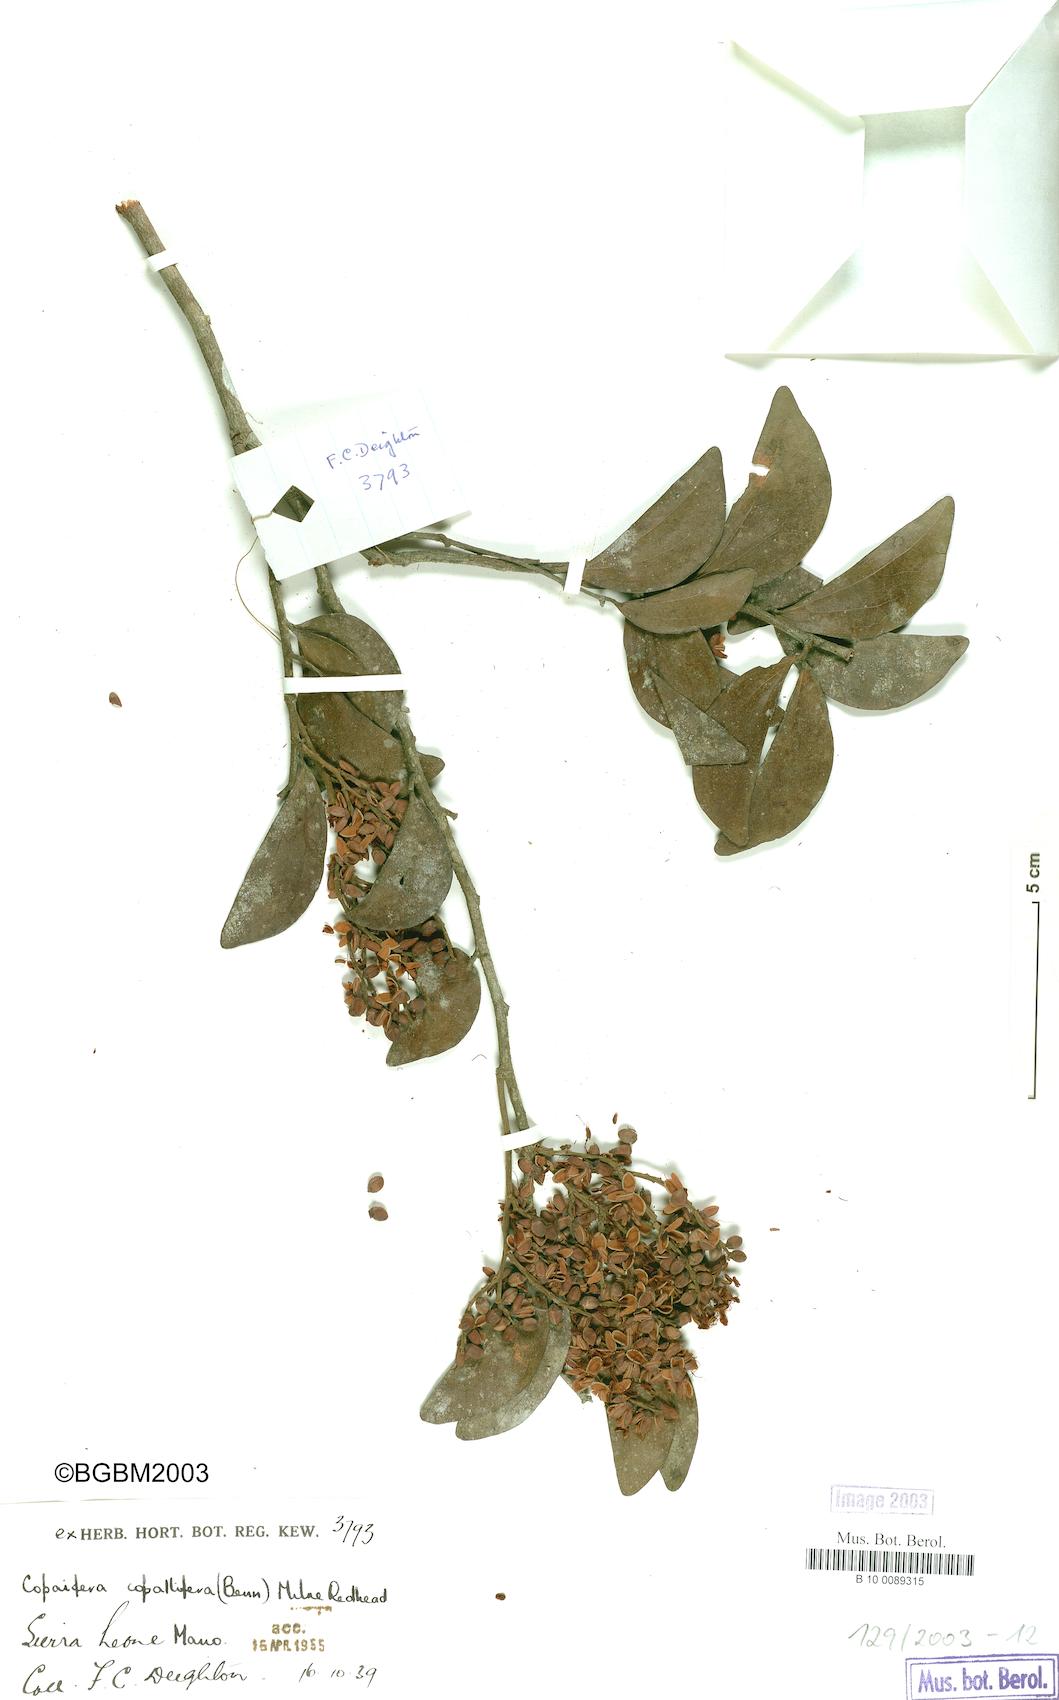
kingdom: Plantae
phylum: Tracheophyta
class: Magnoliopsida
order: Fabales
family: Fabaceae
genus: Guibourtia
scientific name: Guibourtia copallifera
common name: Kobo tree
